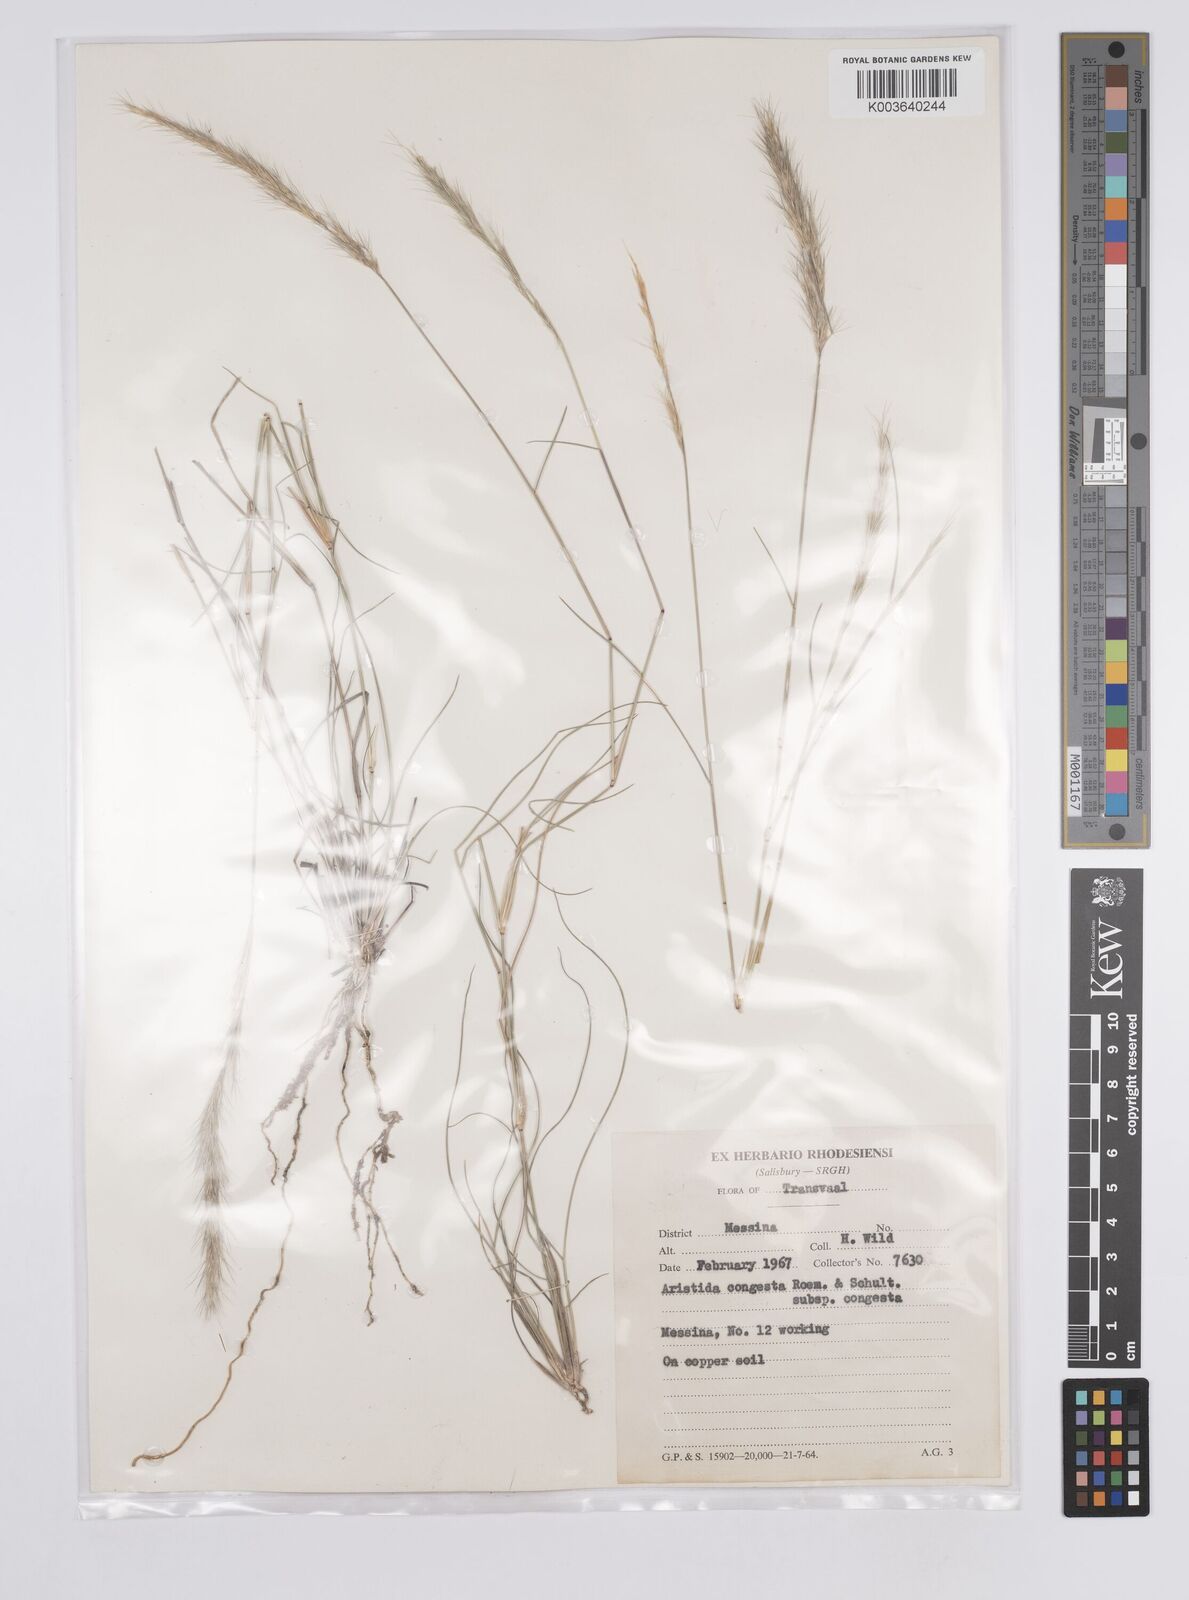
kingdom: Plantae
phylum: Tracheophyta
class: Liliopsida
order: Poales
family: Poaceae
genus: Aristida
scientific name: Aristida congesta
